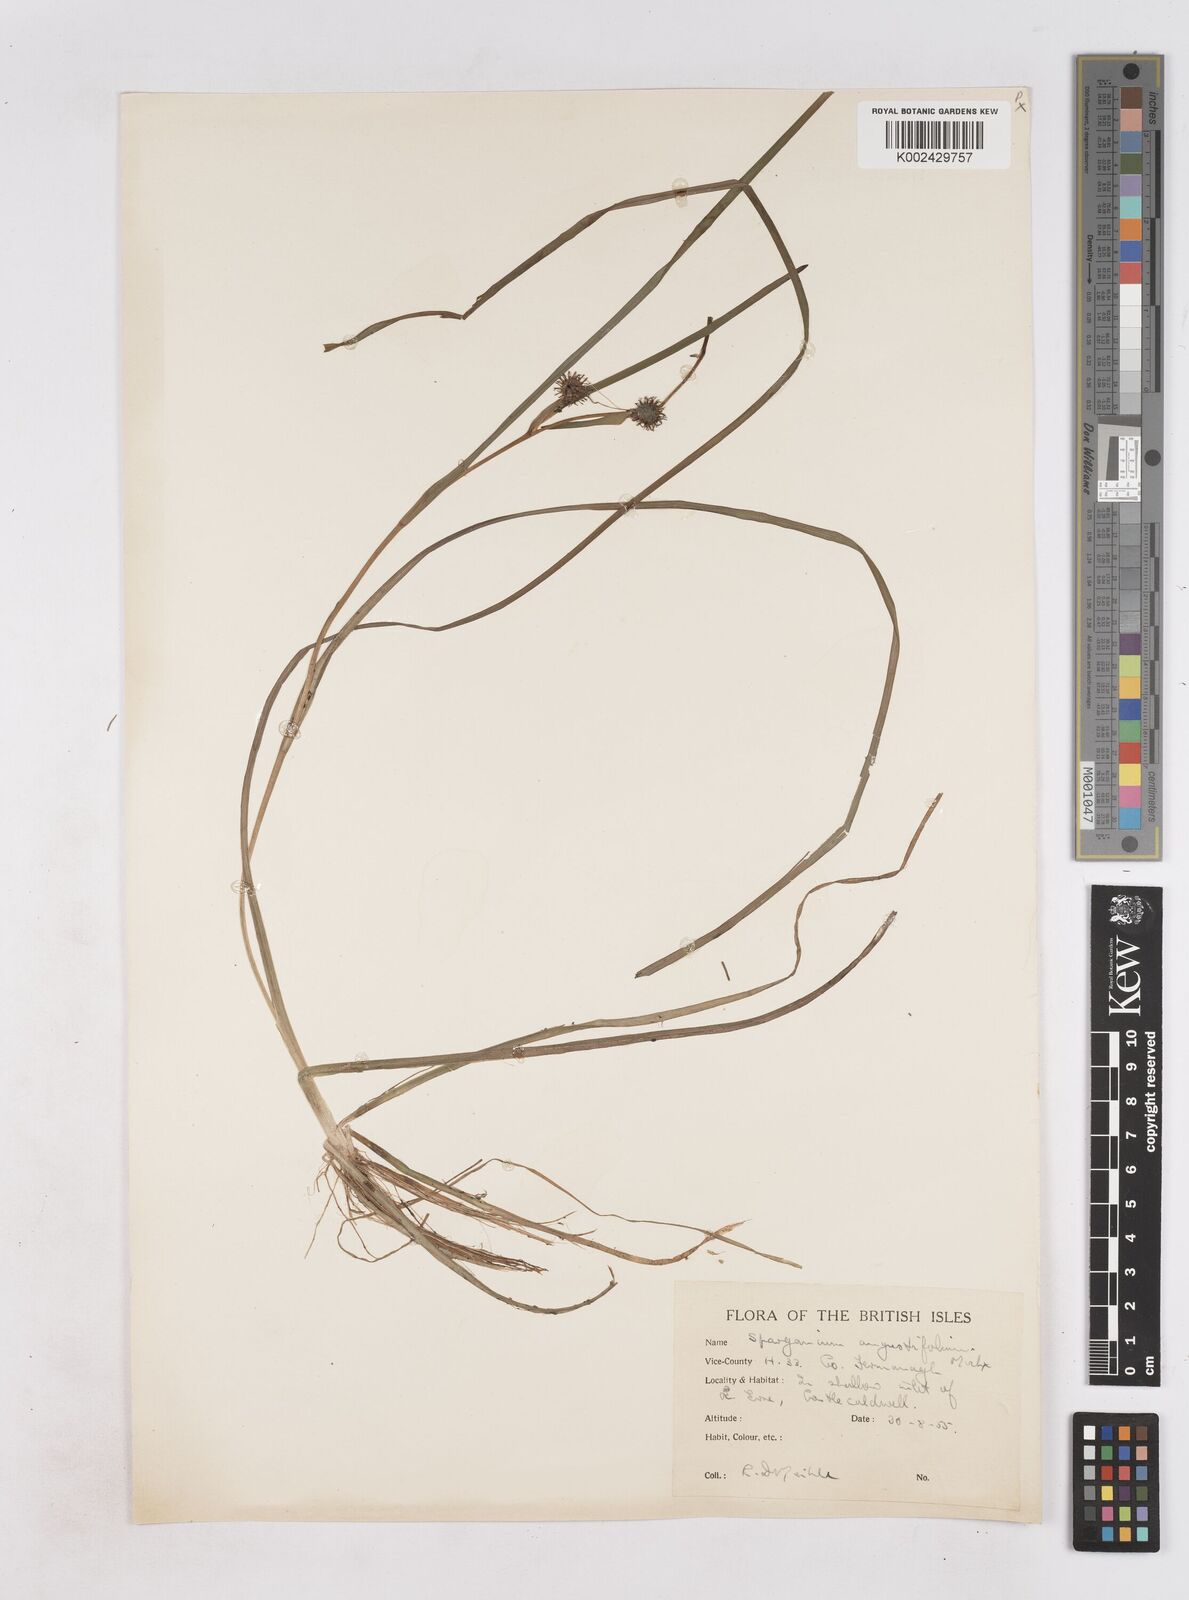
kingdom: Plantae
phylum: Tracheophyta
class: Liliopsida
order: Poales
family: Typhaceae
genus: Sparganium
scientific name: Sparganium angustifolium
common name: Floating bur-reed
